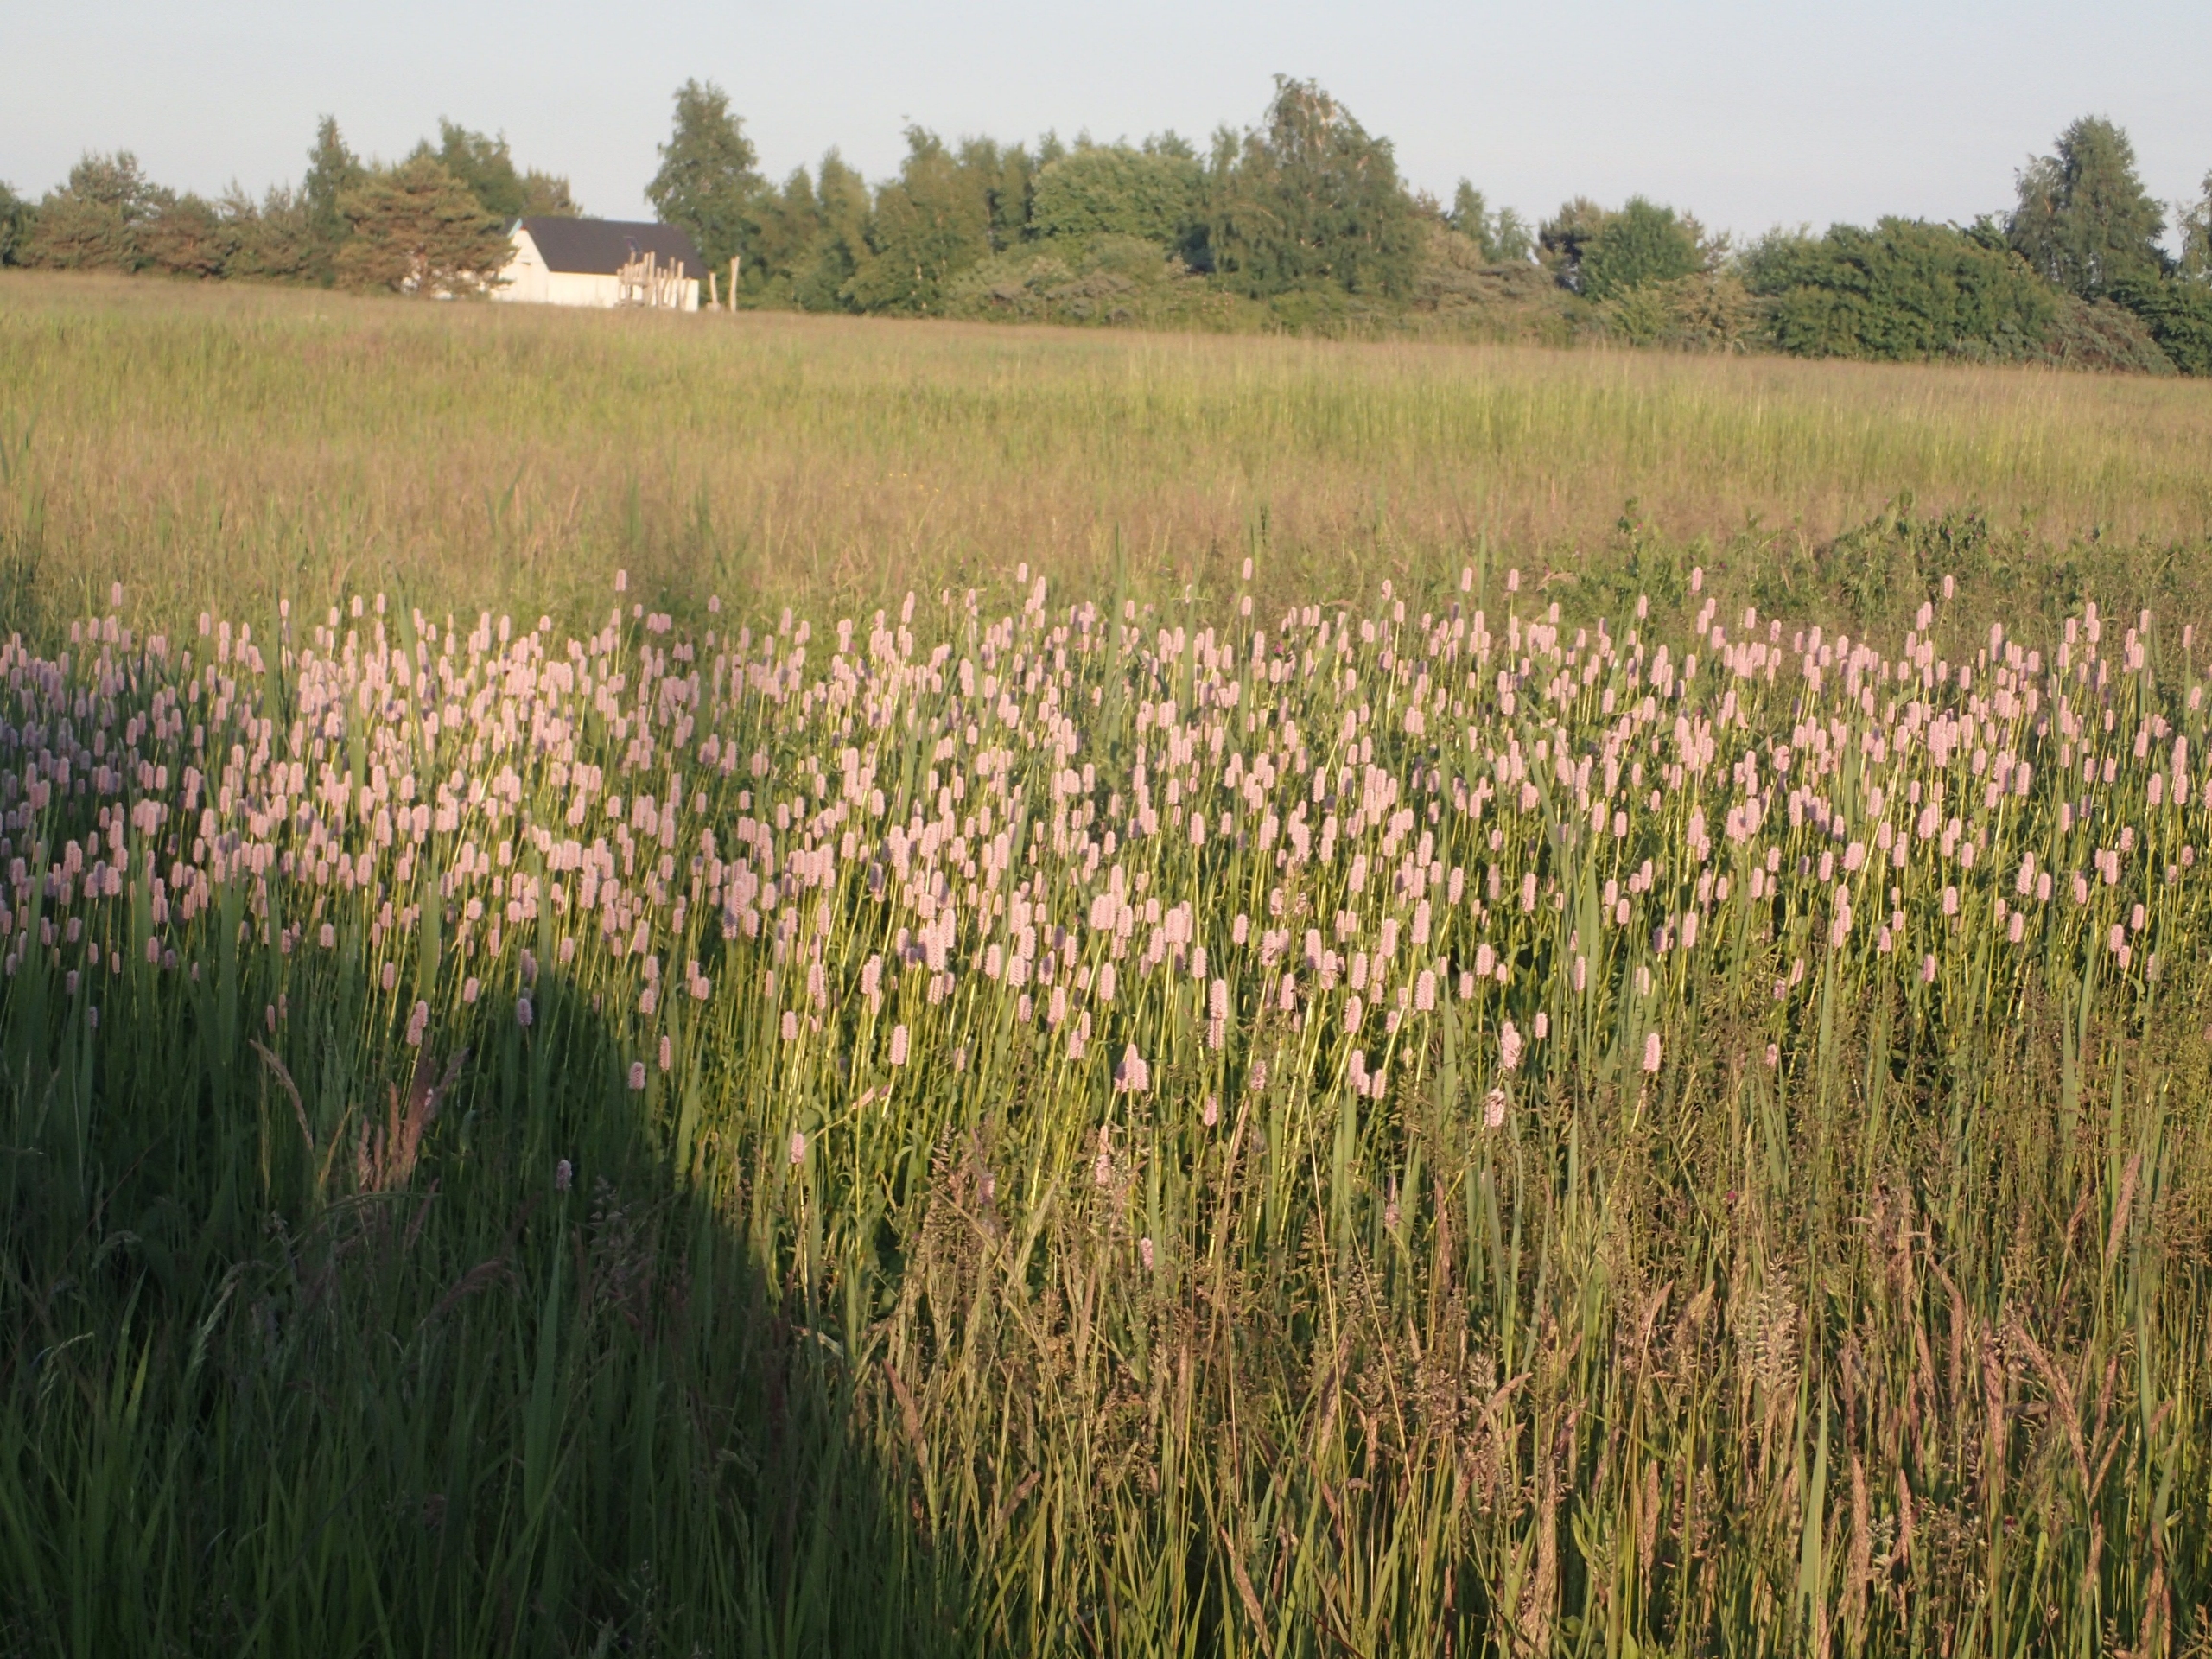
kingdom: Plantae
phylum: Tracheophyta
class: Magnoliopsida
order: Caryophyllales
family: Polygonaceae
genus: Bistorta
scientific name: Bistorta officinalis
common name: Slangeurt
